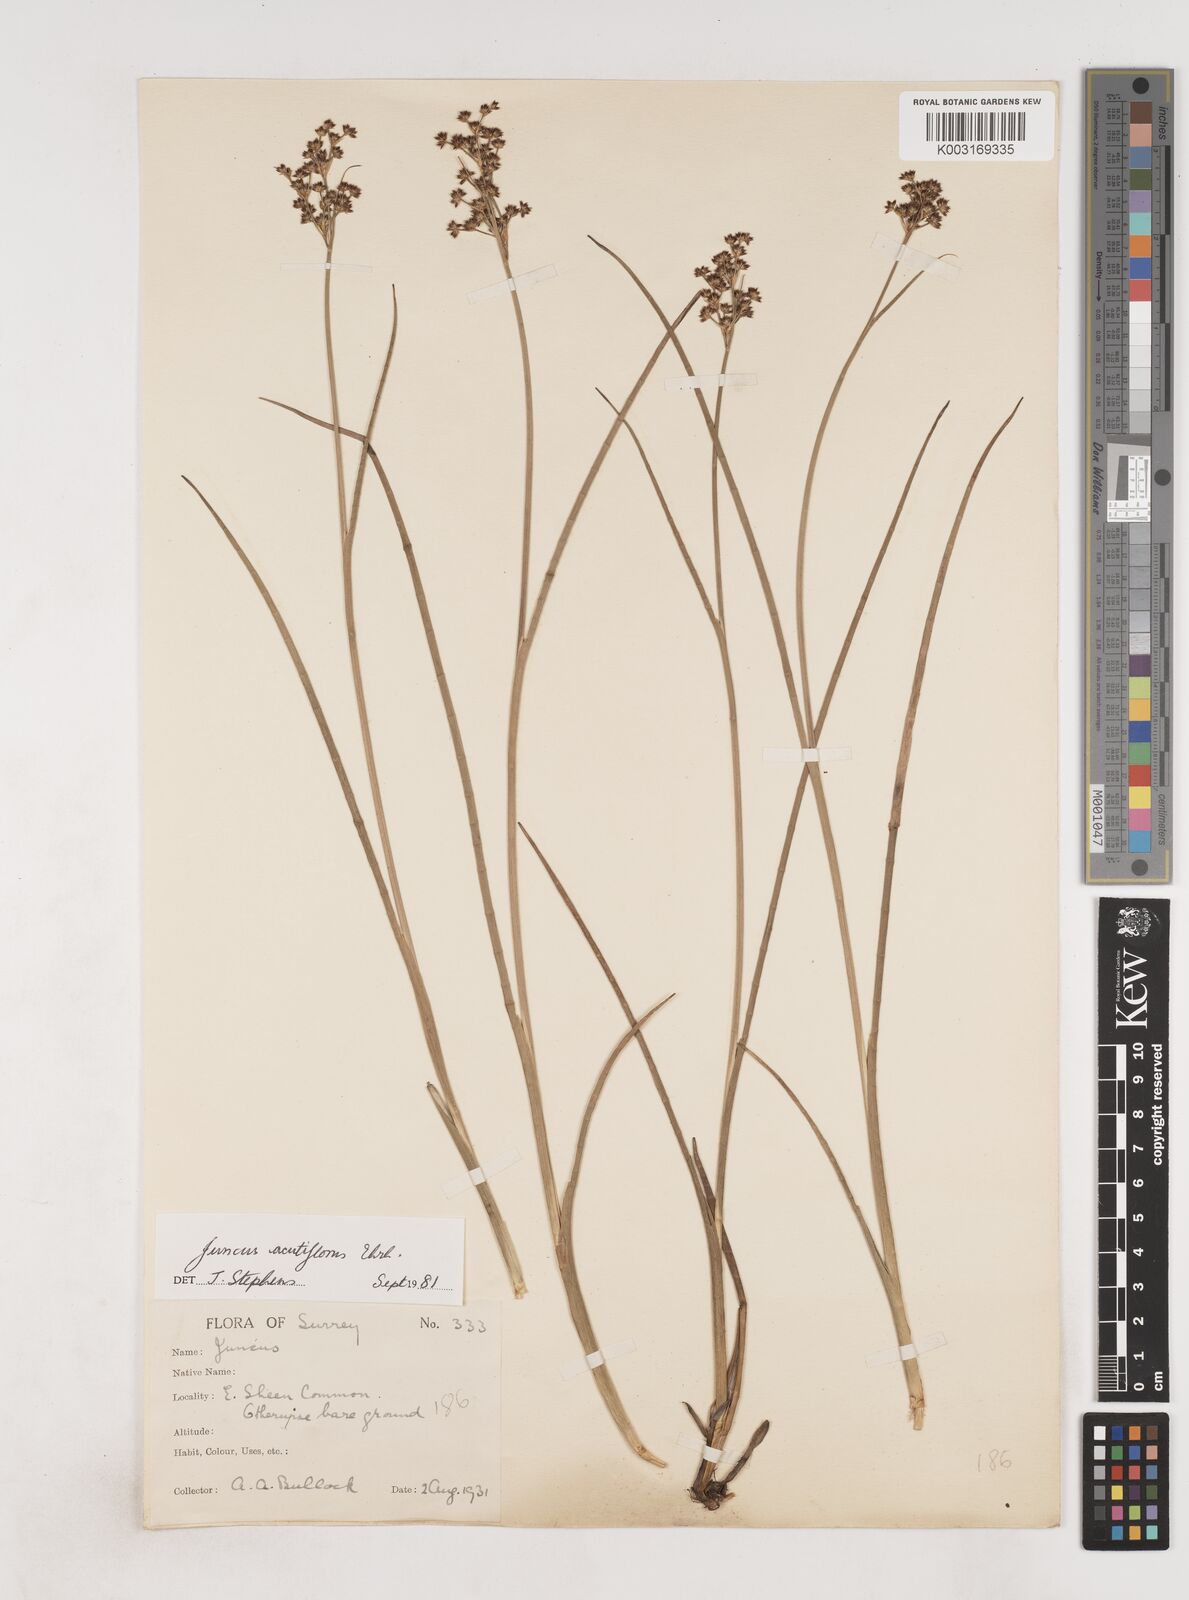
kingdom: Plantae
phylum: Tracheophyta
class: Liliopsida
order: Poales
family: Juncaceae
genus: Juncus
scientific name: Juncus acutiflorus
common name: Sharp-flowered rush
